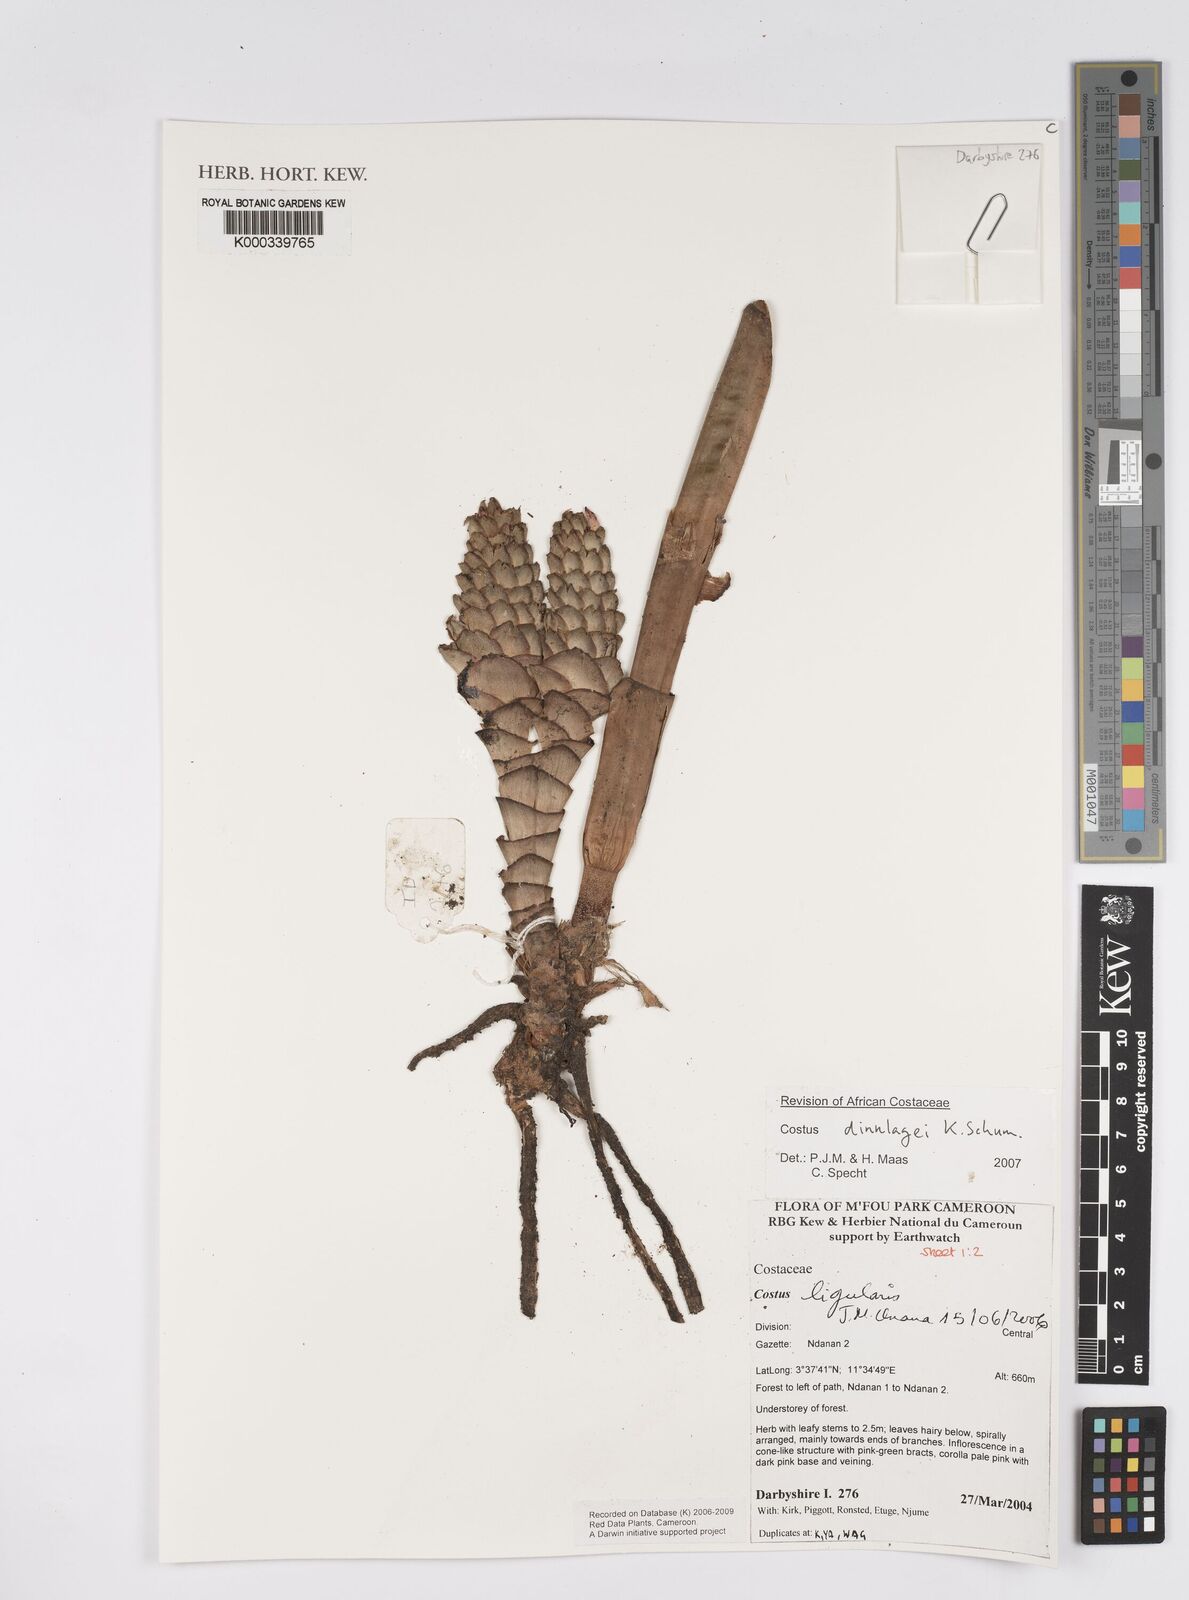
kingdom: Plantae
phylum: Tracheophyta
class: Liliopsida
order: Zingiberales
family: Costaceae
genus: Costus
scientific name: Costus dinklagei
